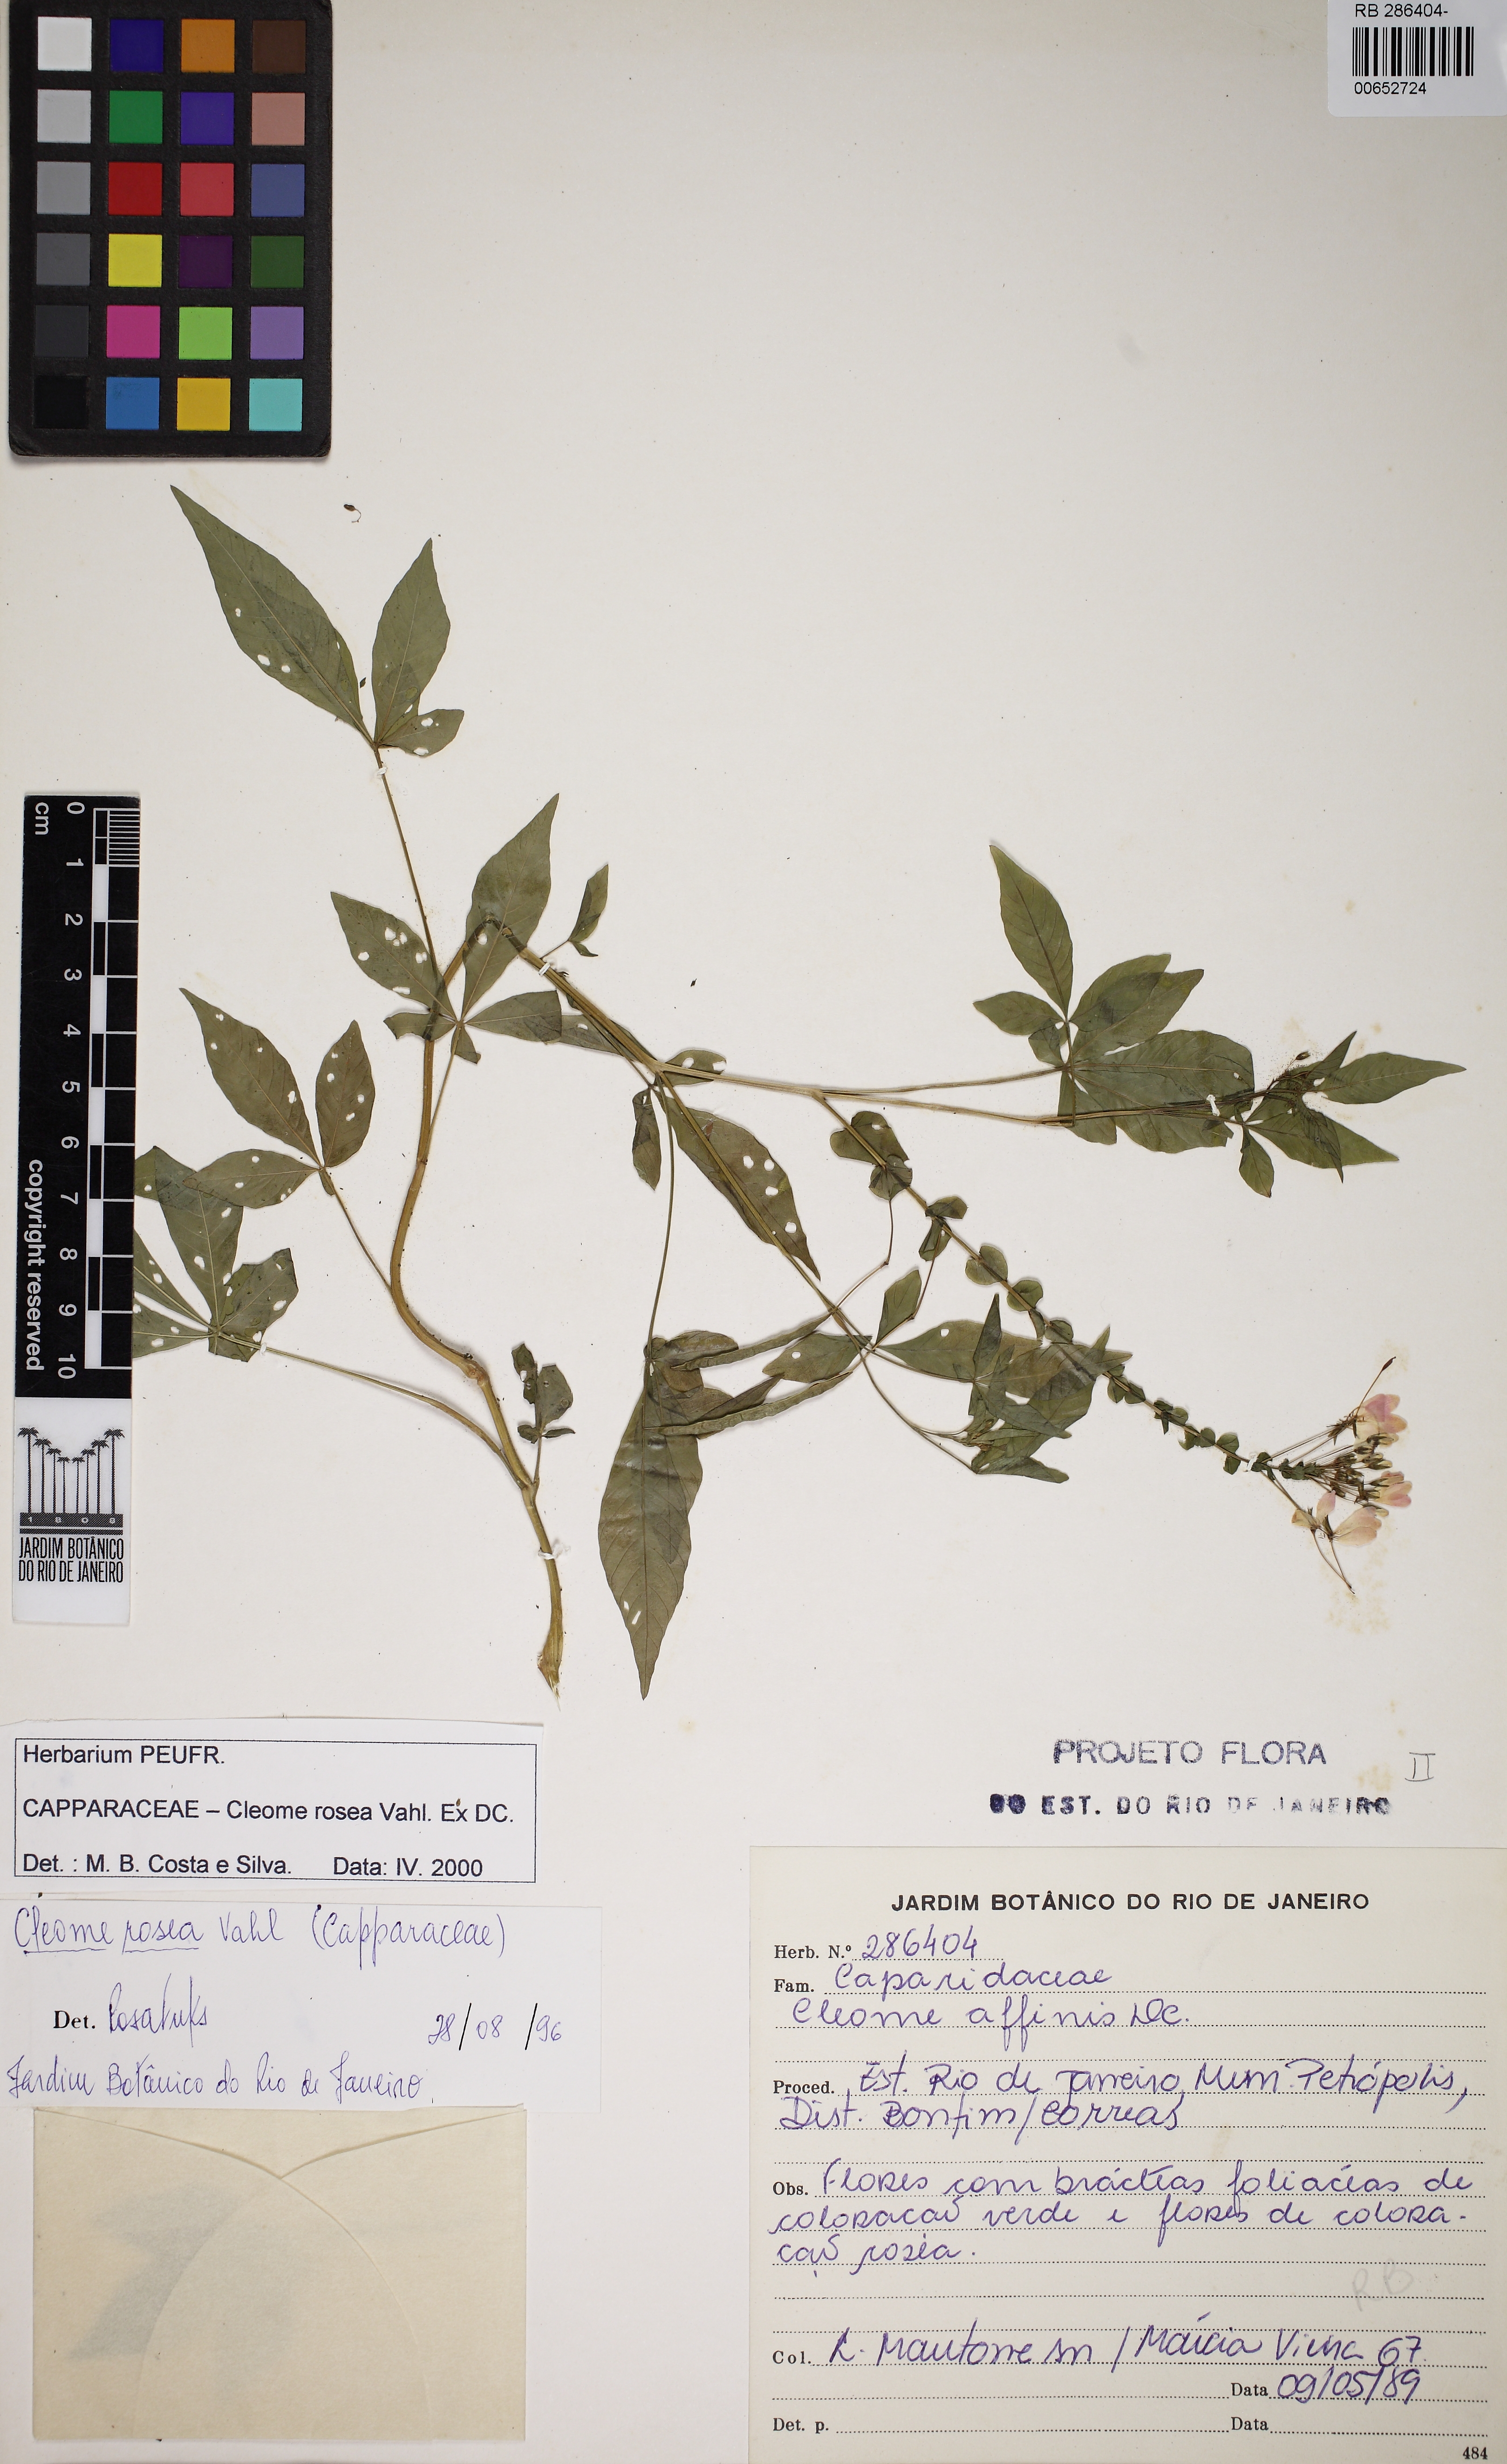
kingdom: Plantae
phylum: Tracheophyta
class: Magnoliopsida
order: Brassicales
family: Cleomaceae
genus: Tarenaya
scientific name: Tarenaya rosea
